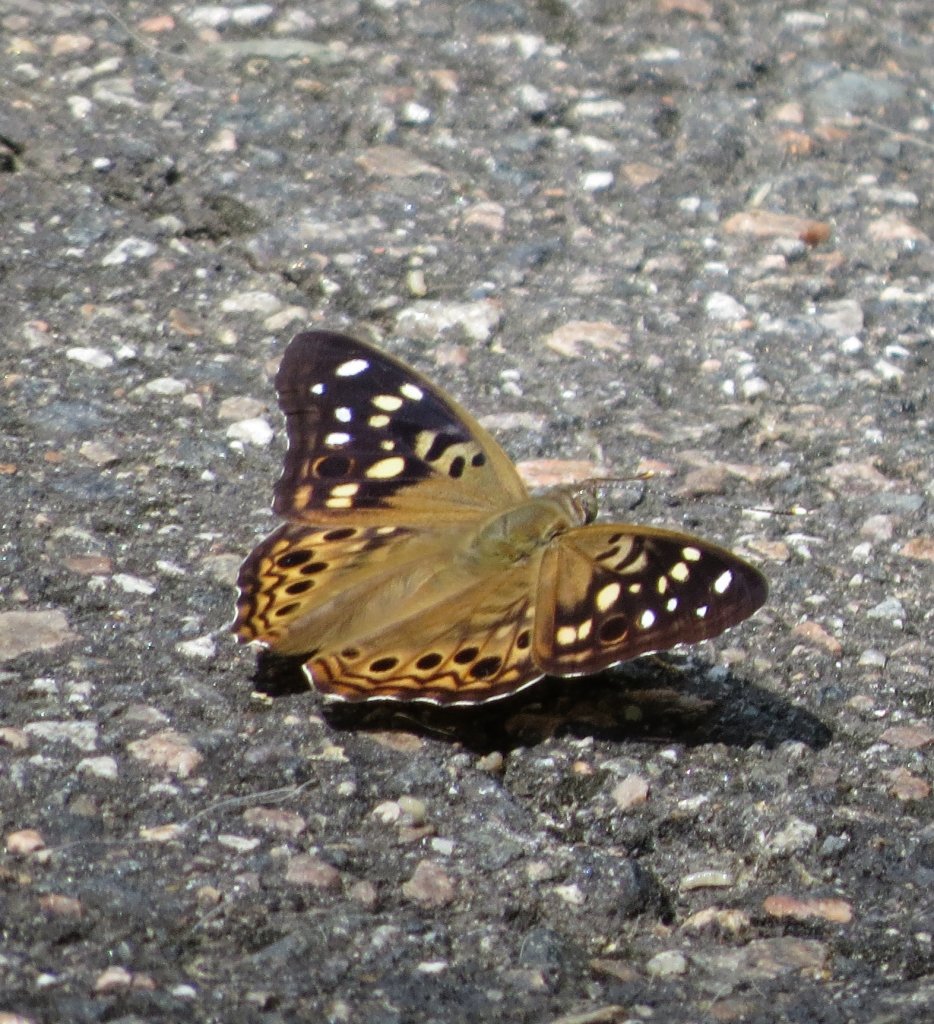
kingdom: Animalia
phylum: Arthropoda
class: Insecta
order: Lepidoptera
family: Nymphalidae
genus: Asterocampa
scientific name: Asterocampa celtis
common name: Hackberry Emperor
